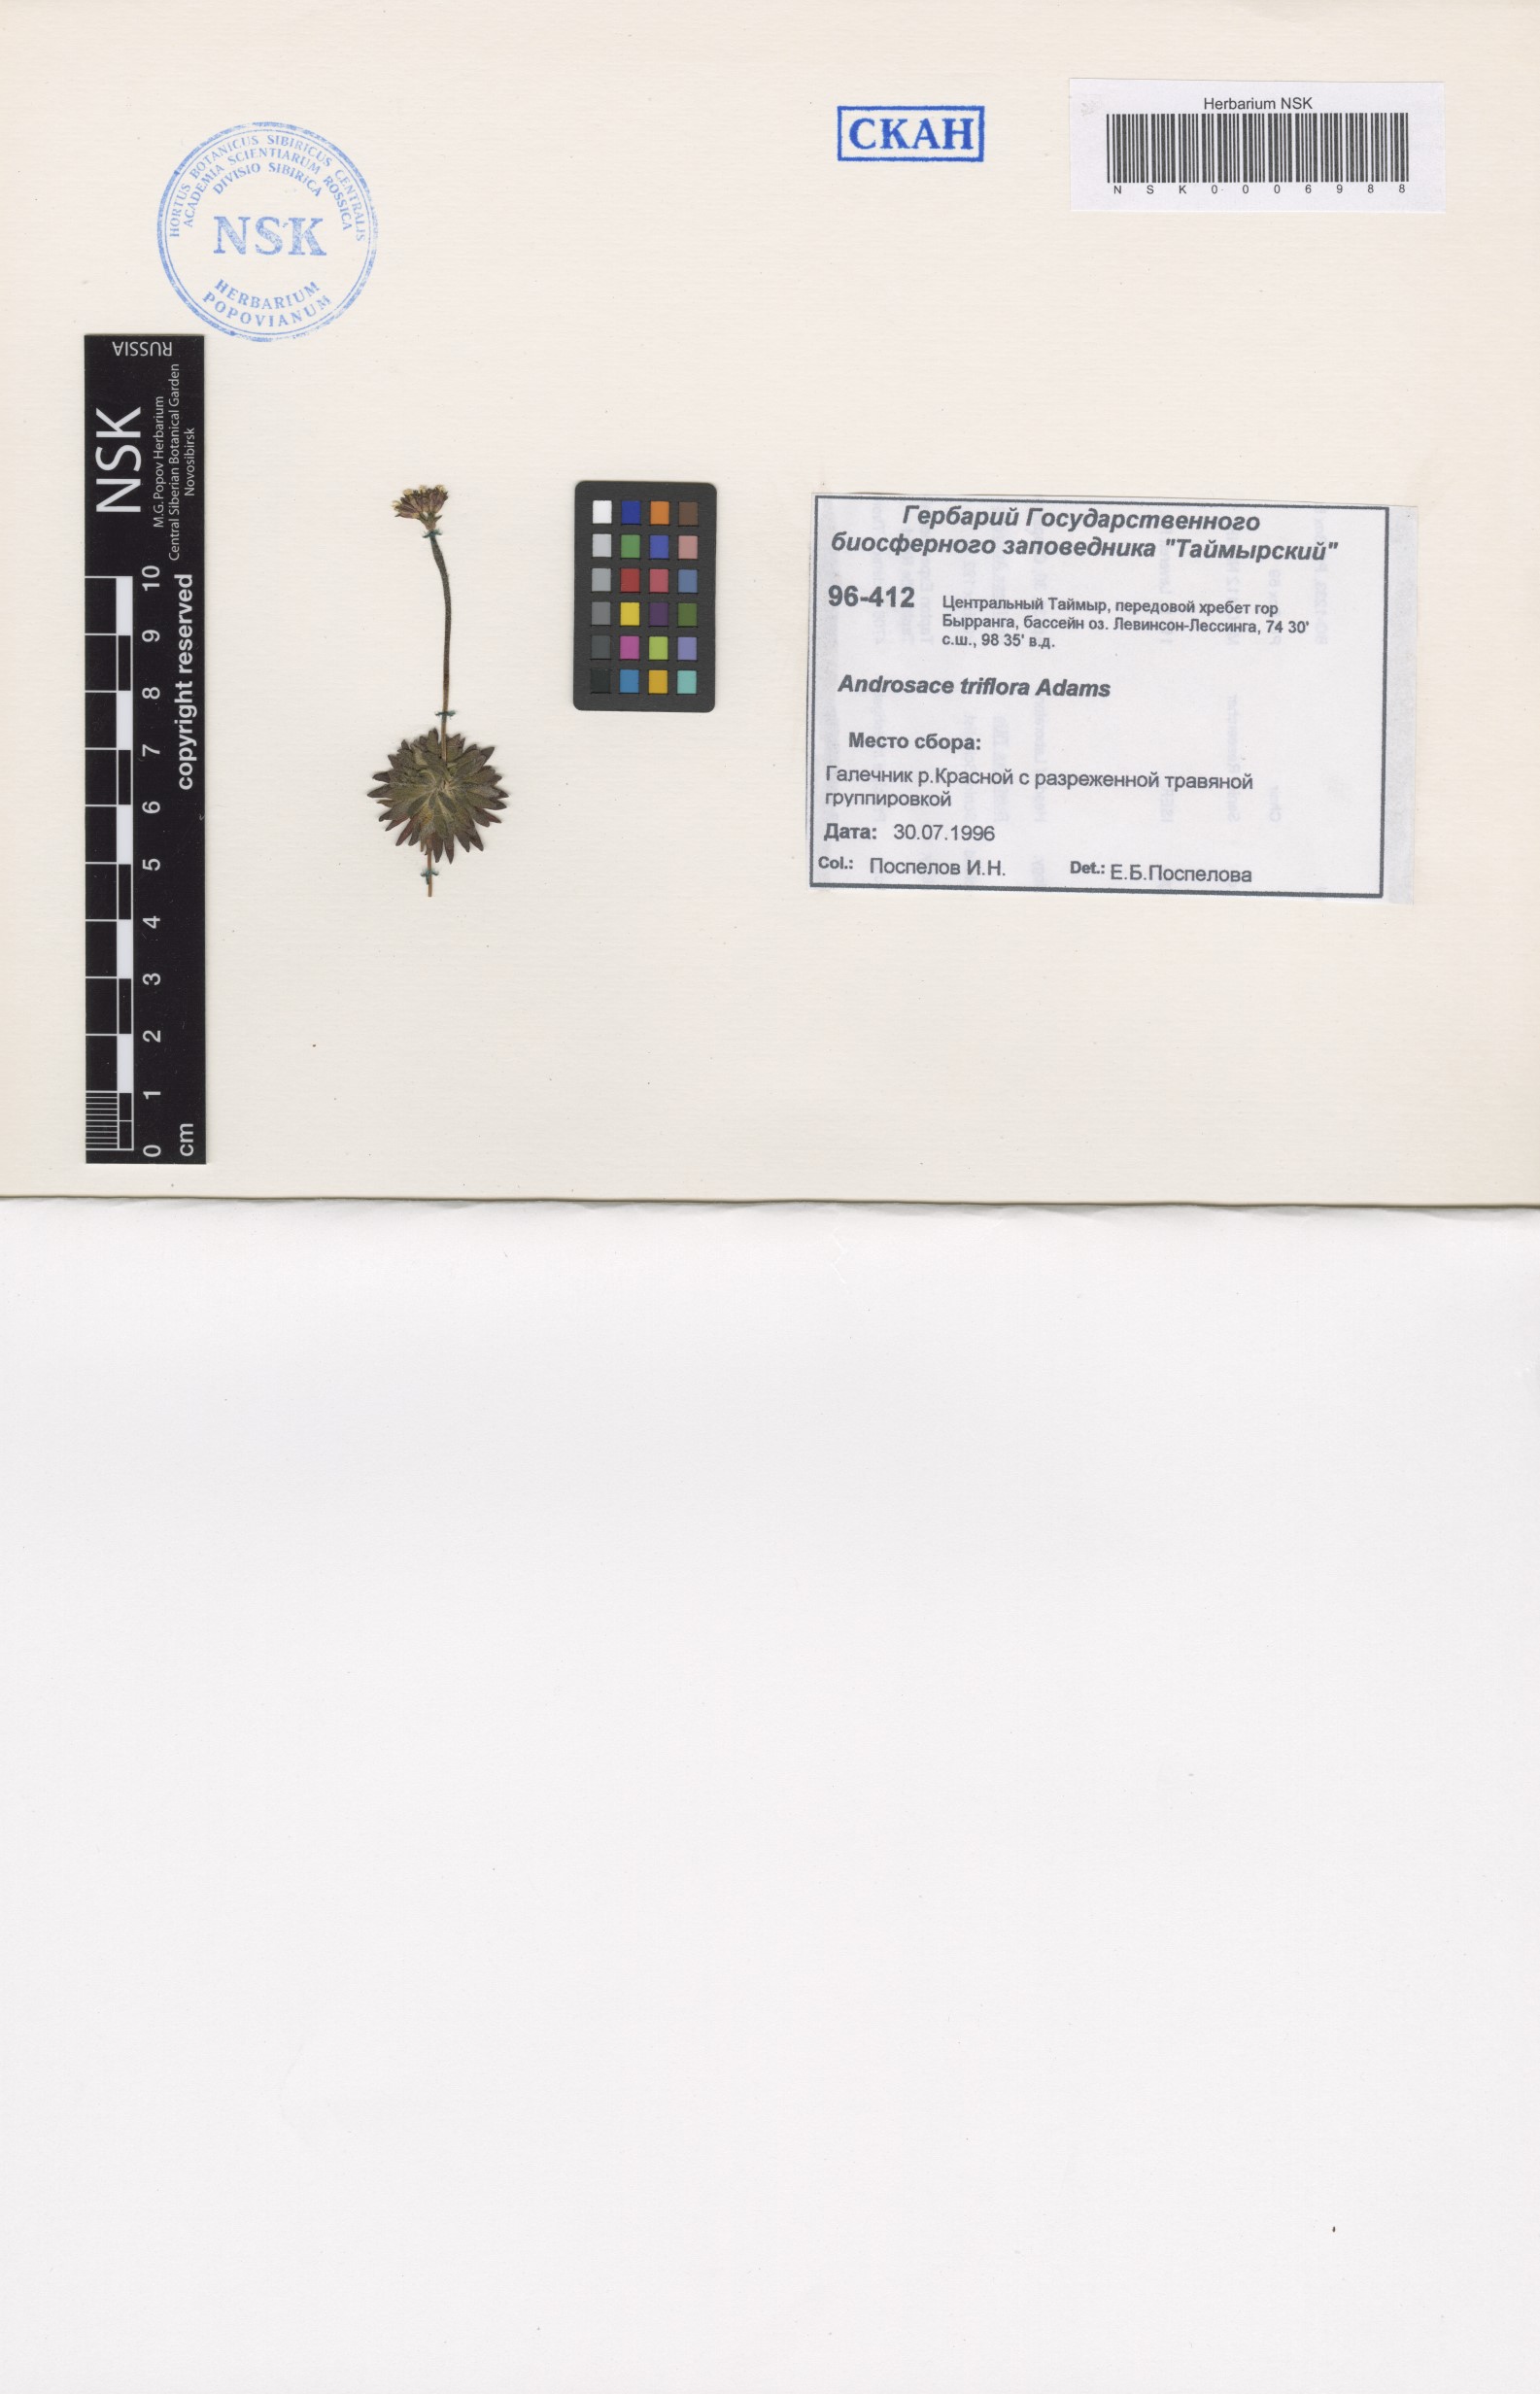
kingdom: Plantae
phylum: Tracheophyta
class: Magnoliopsida
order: Ericales
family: Primulaceae
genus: Androsace
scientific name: Androsace triflora
